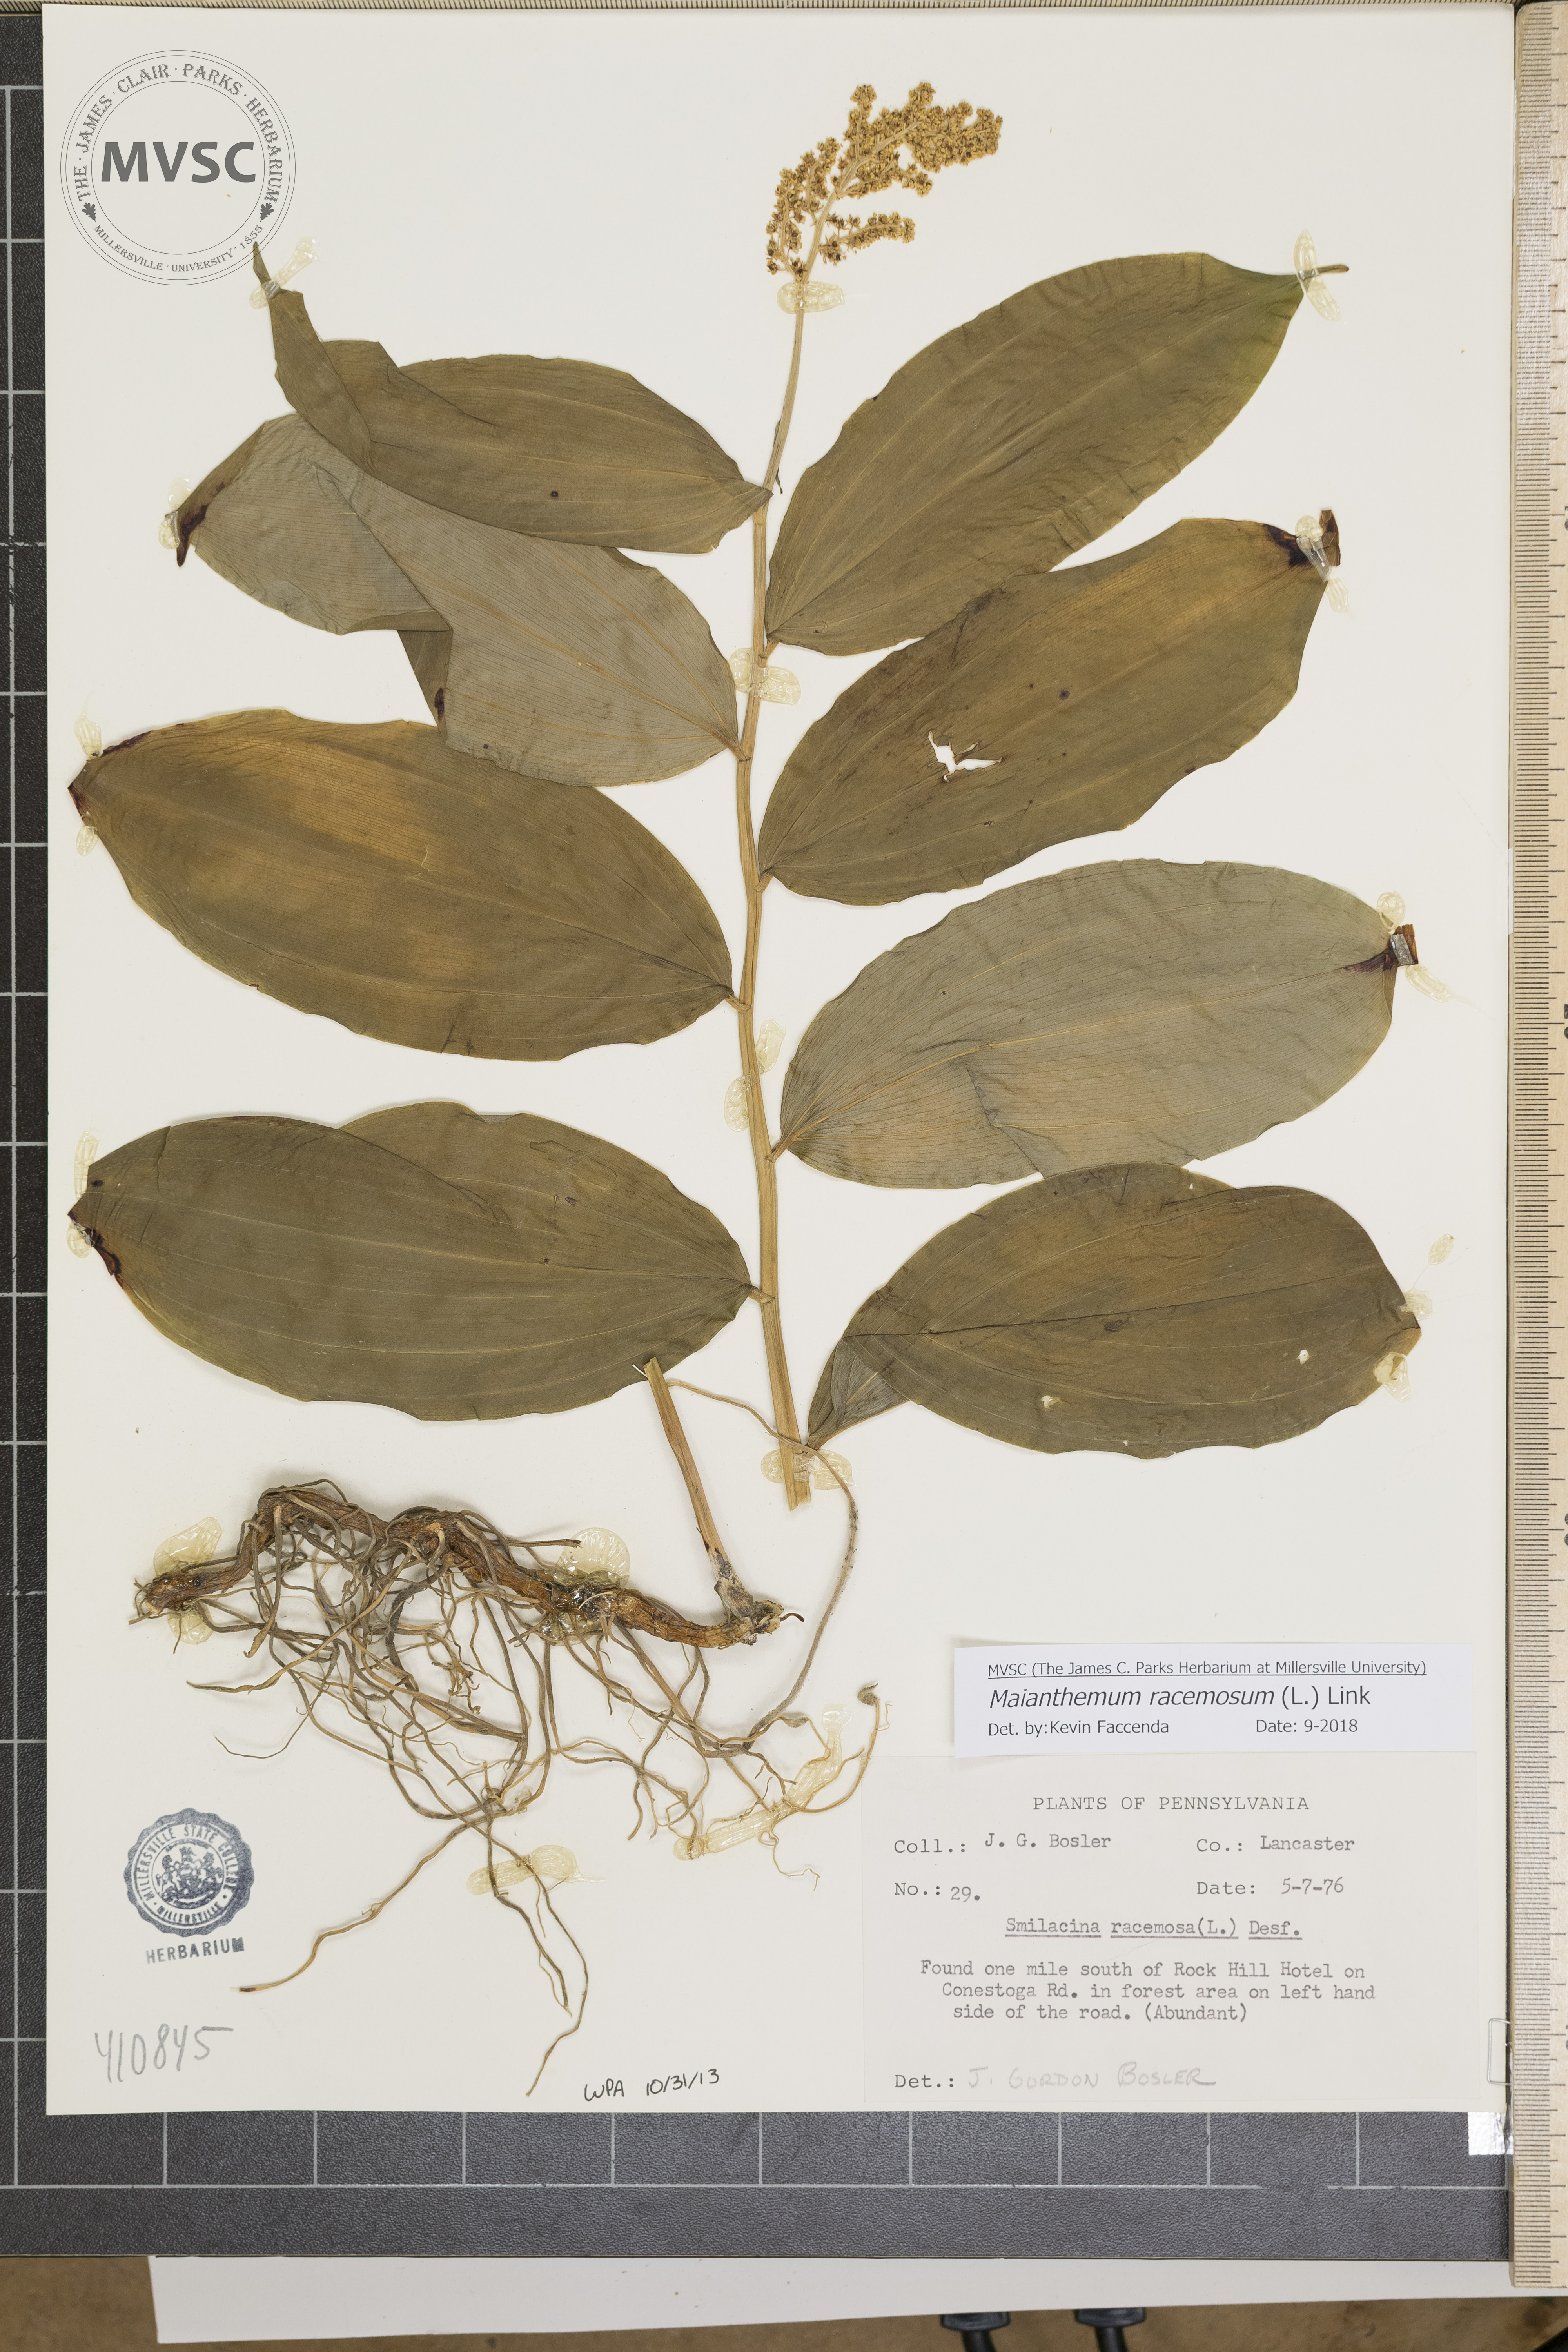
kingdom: Plantae
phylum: Tracheophyta
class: Liliopsida
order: Asparagales
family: Asparagaceae
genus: Maianthemum
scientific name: Maianthemum racemosum
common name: False spikenard
